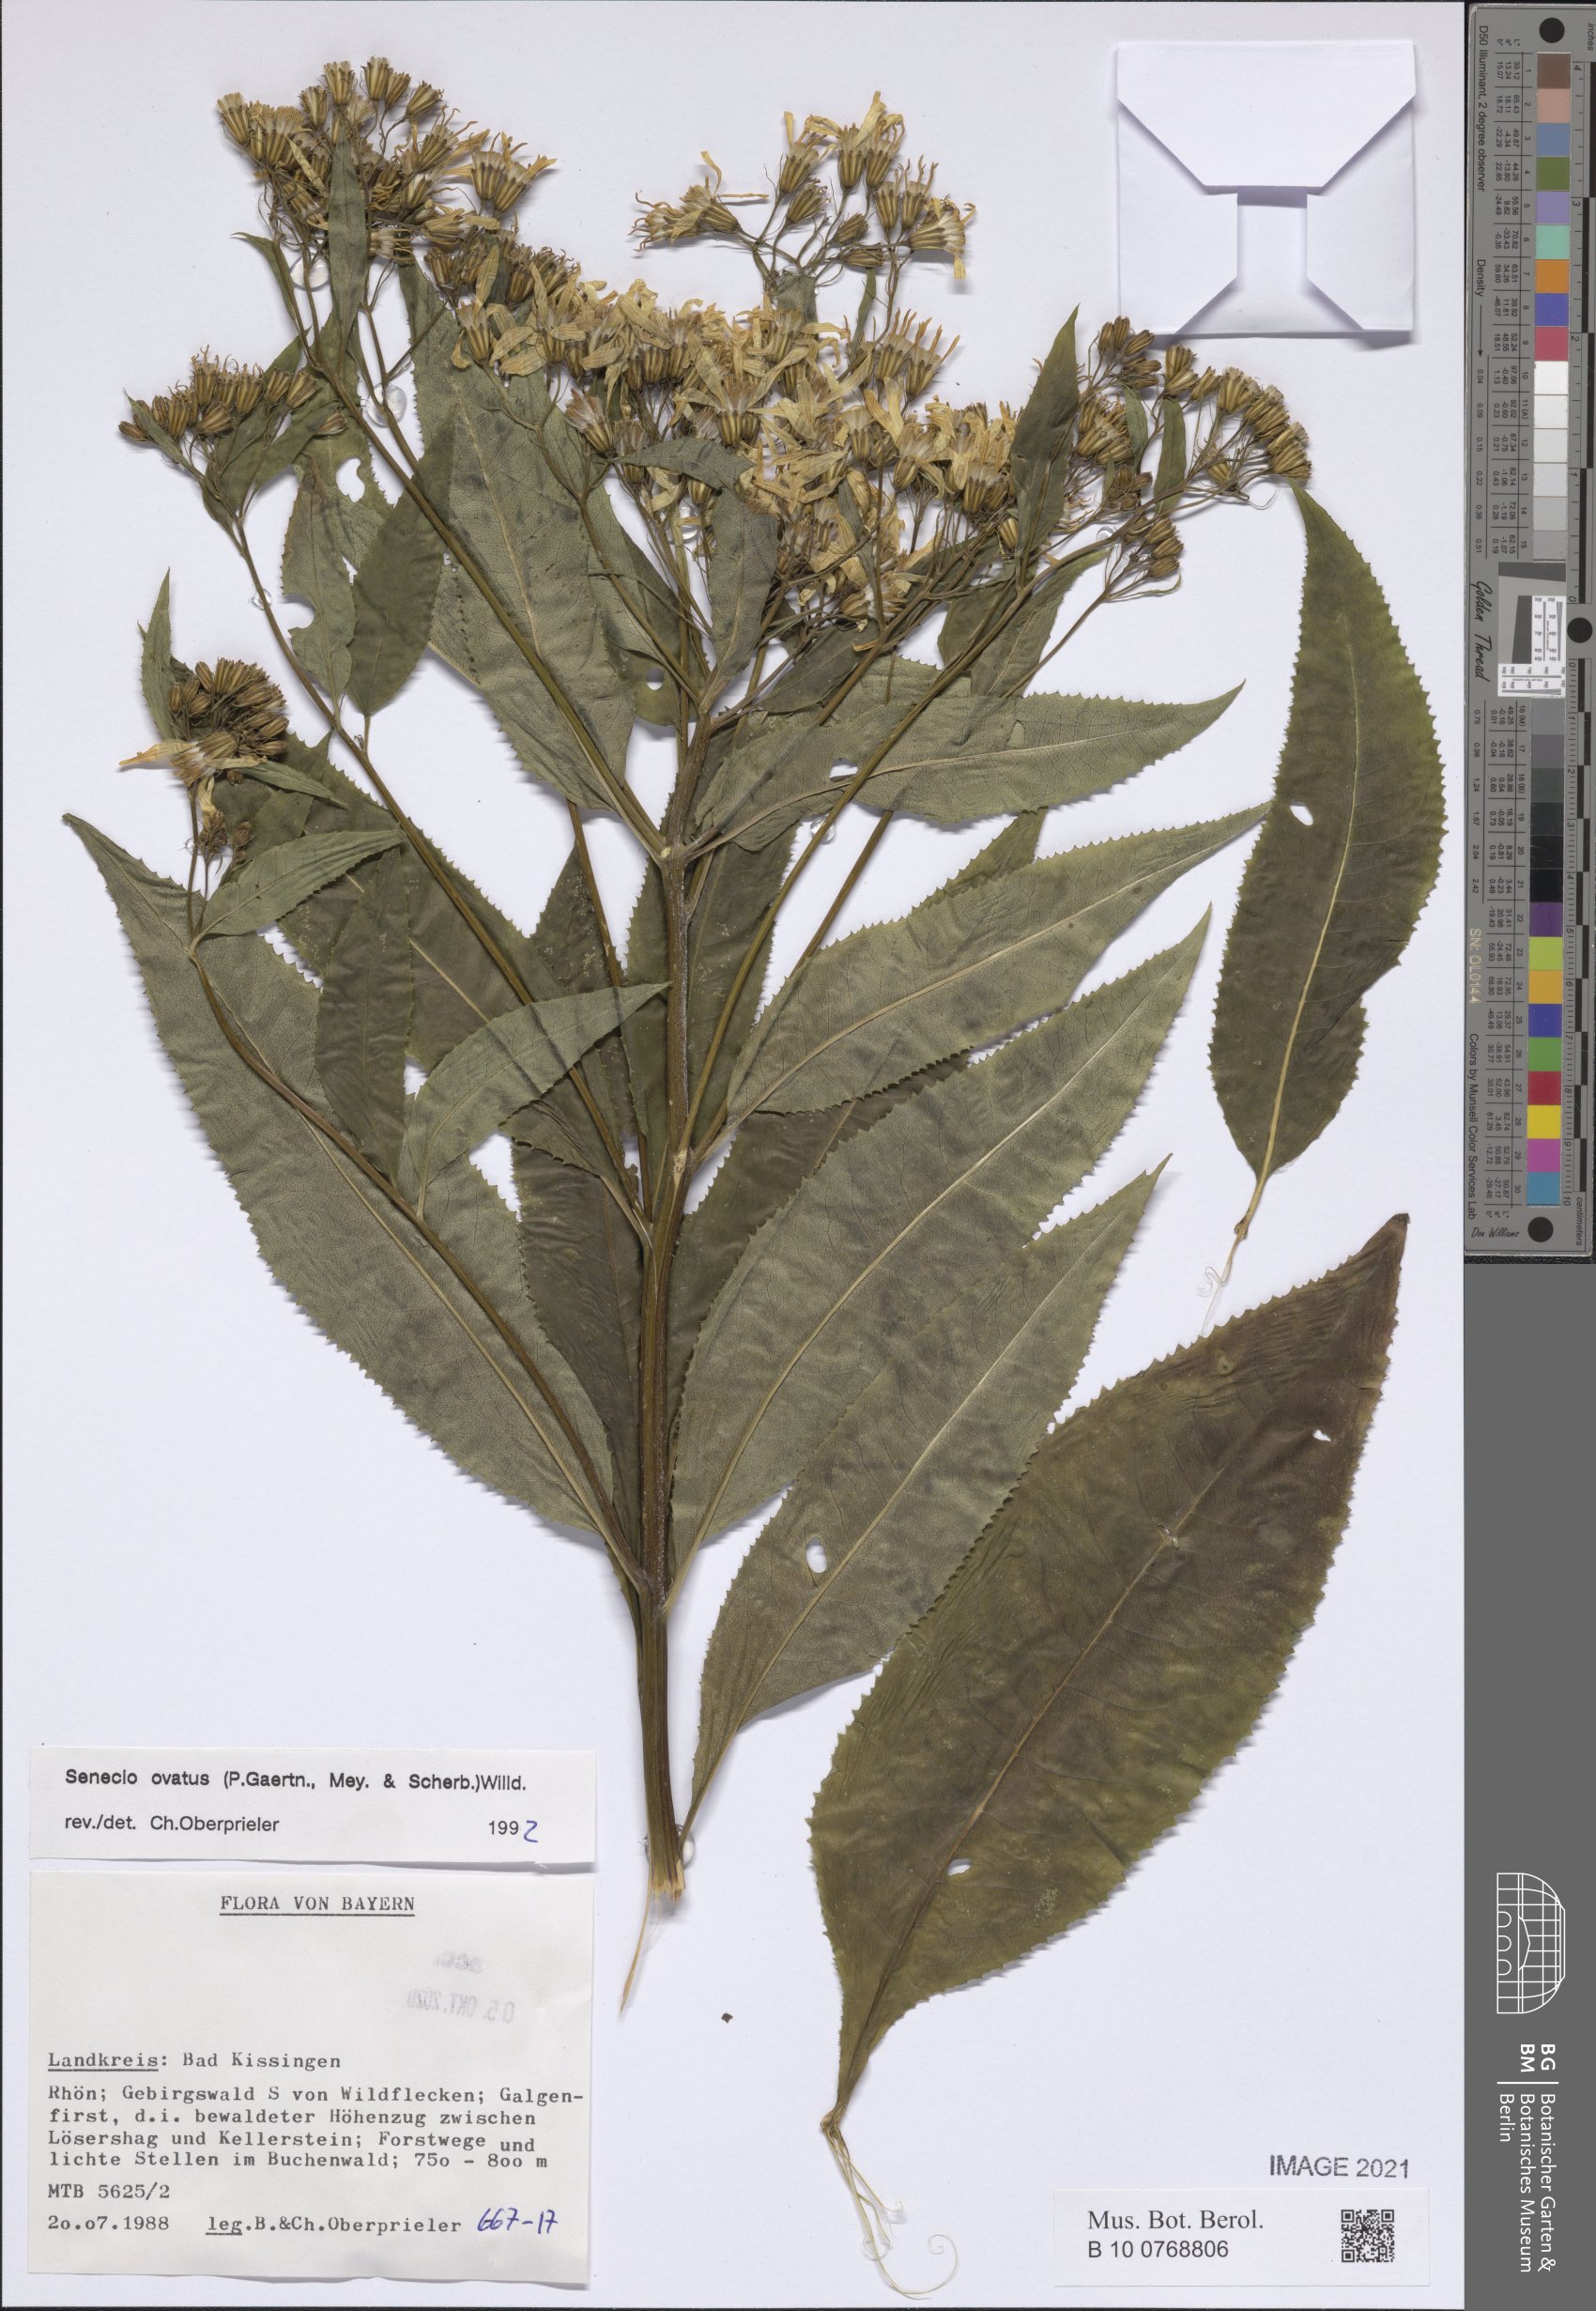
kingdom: Plantae
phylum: Tracheophyta
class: Magnoliopsida
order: Asterales
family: Asteraceae
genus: Senecio
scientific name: Senecio ovatus
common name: Wood ragwort
